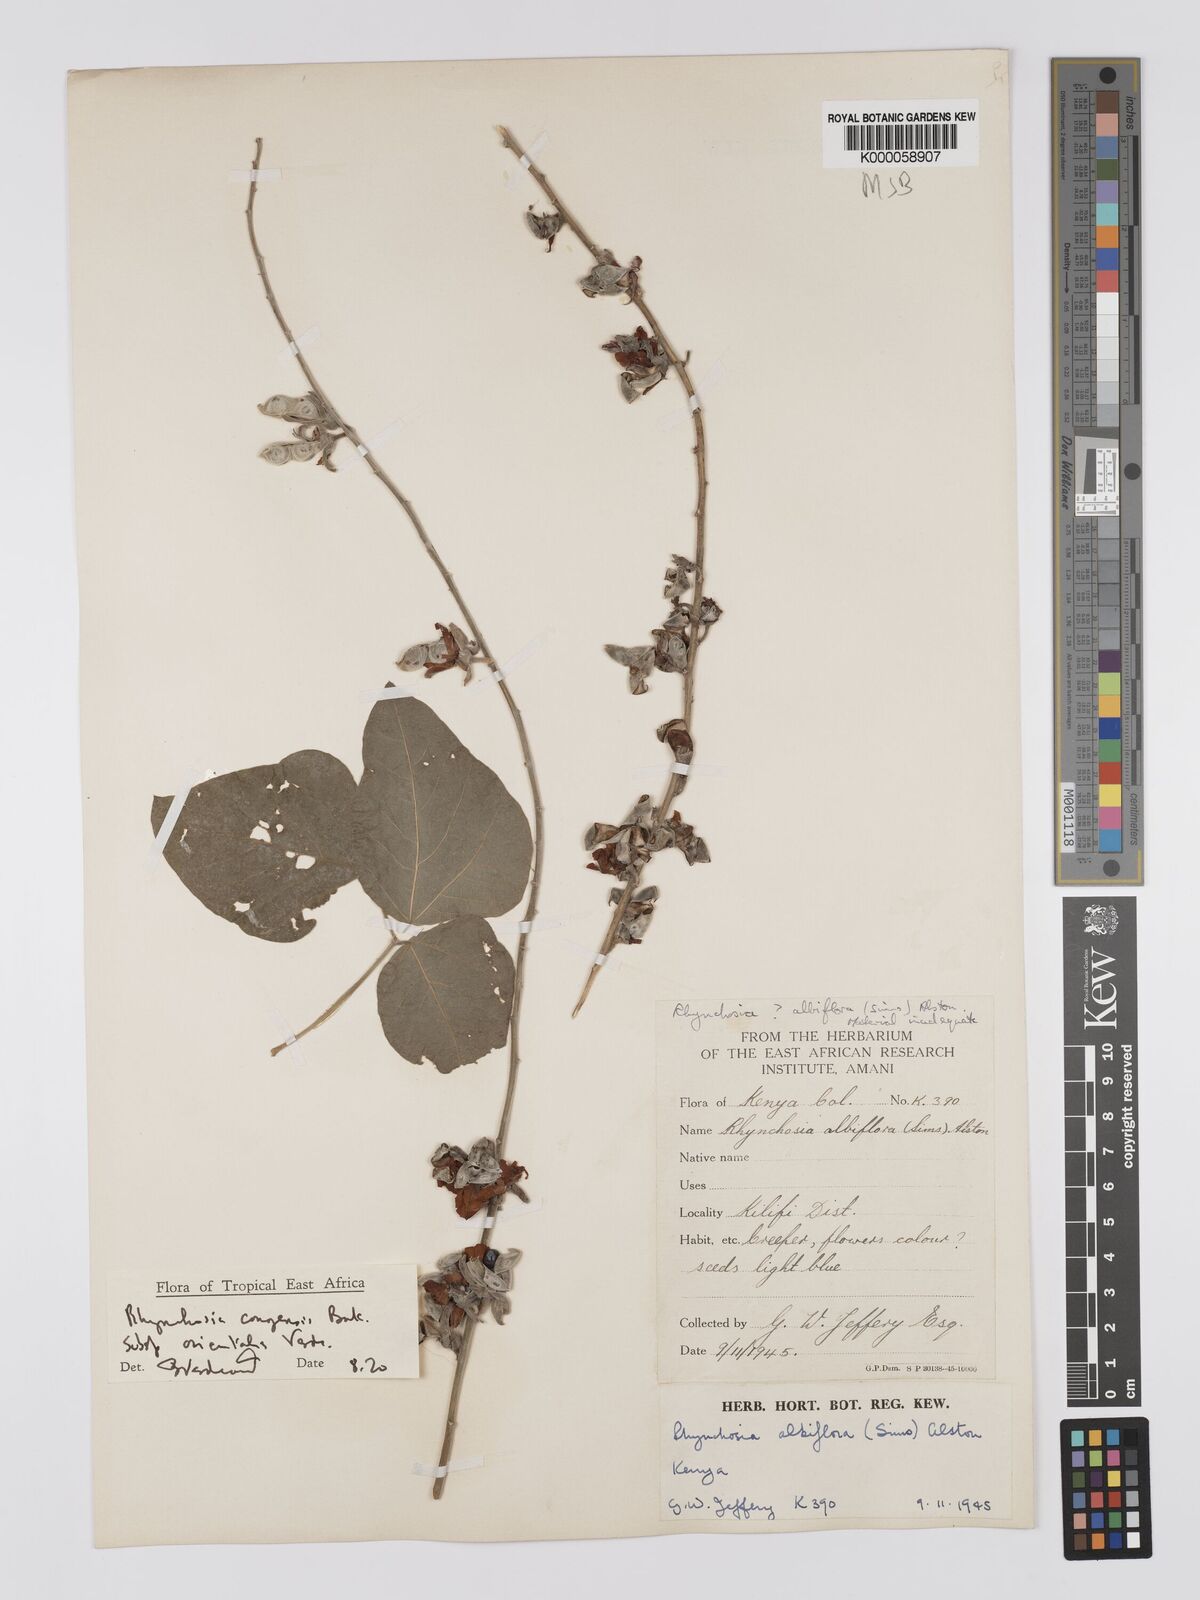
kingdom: Plantae
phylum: Tracheophyta
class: Magnoliopsida
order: Fabales
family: Fabaceae
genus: Rhynchosia
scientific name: Rhynchosia congensis
